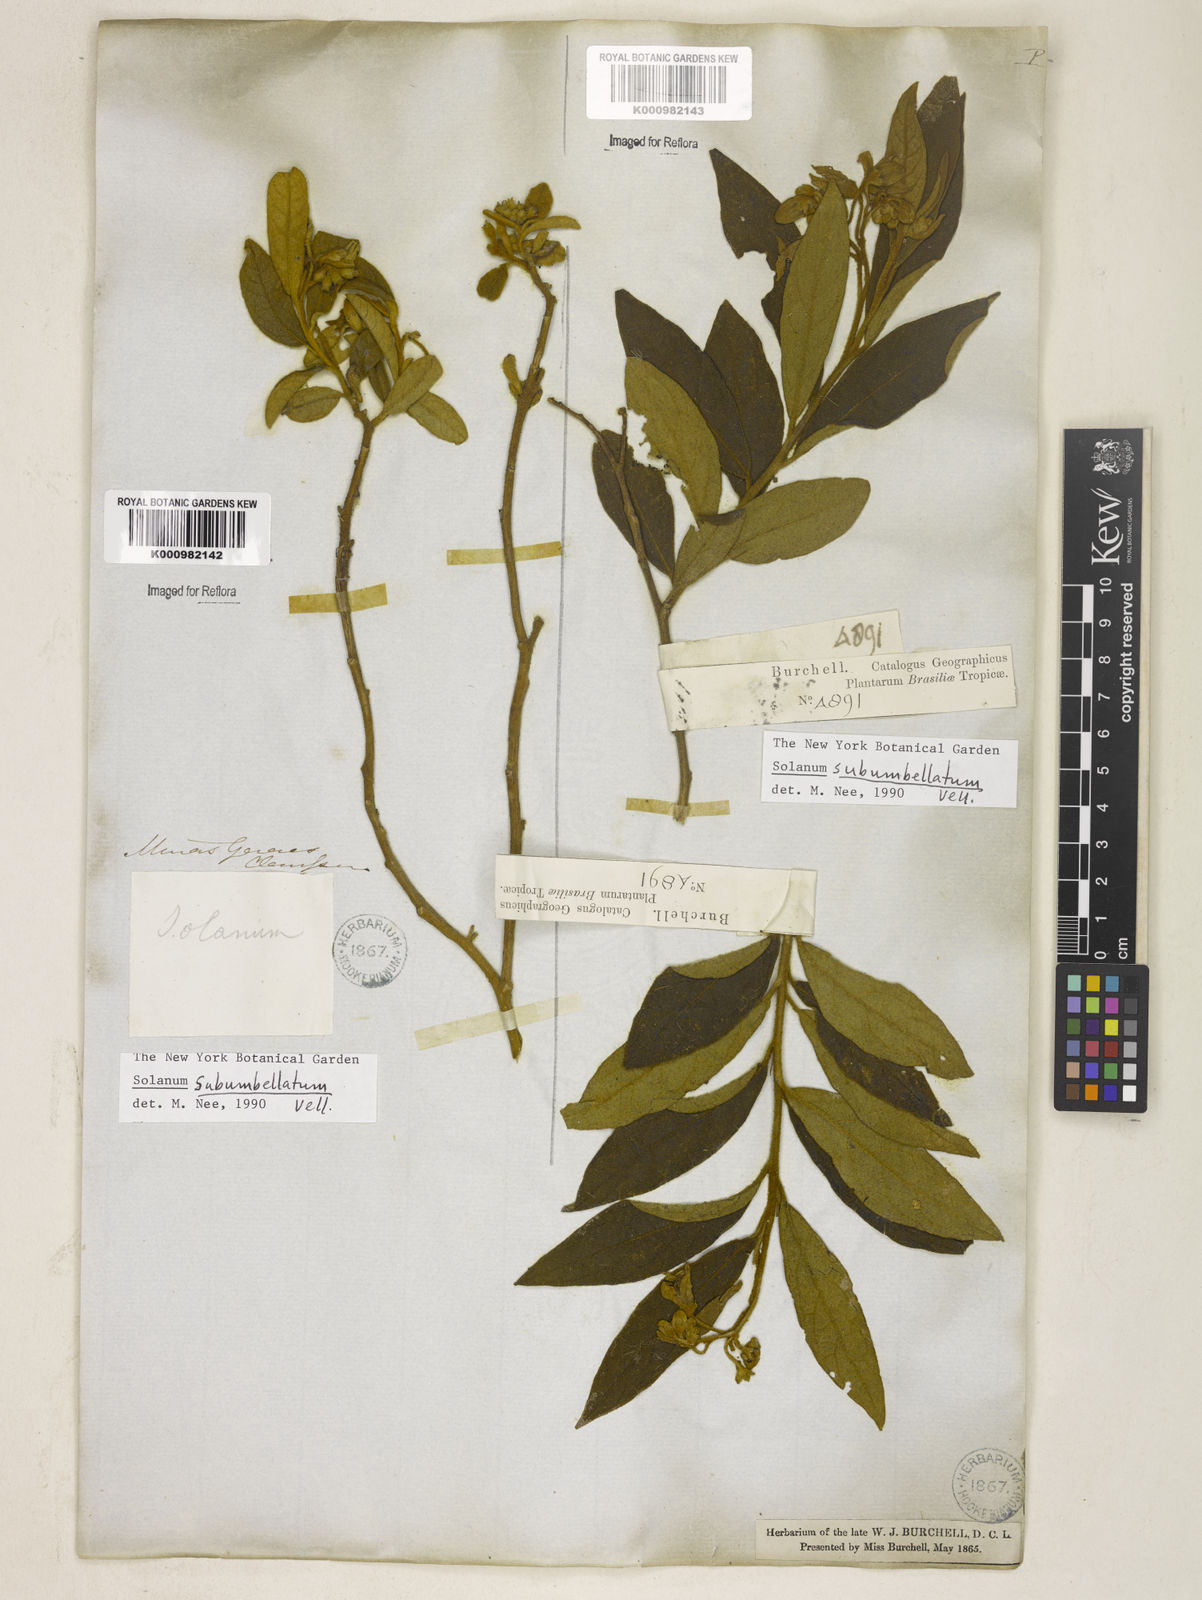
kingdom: Plantae
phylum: Tracheophyta
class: Magnoliopsida
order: Solanales
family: Solanaceae
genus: Solanum
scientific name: Solanum subumbellatum
